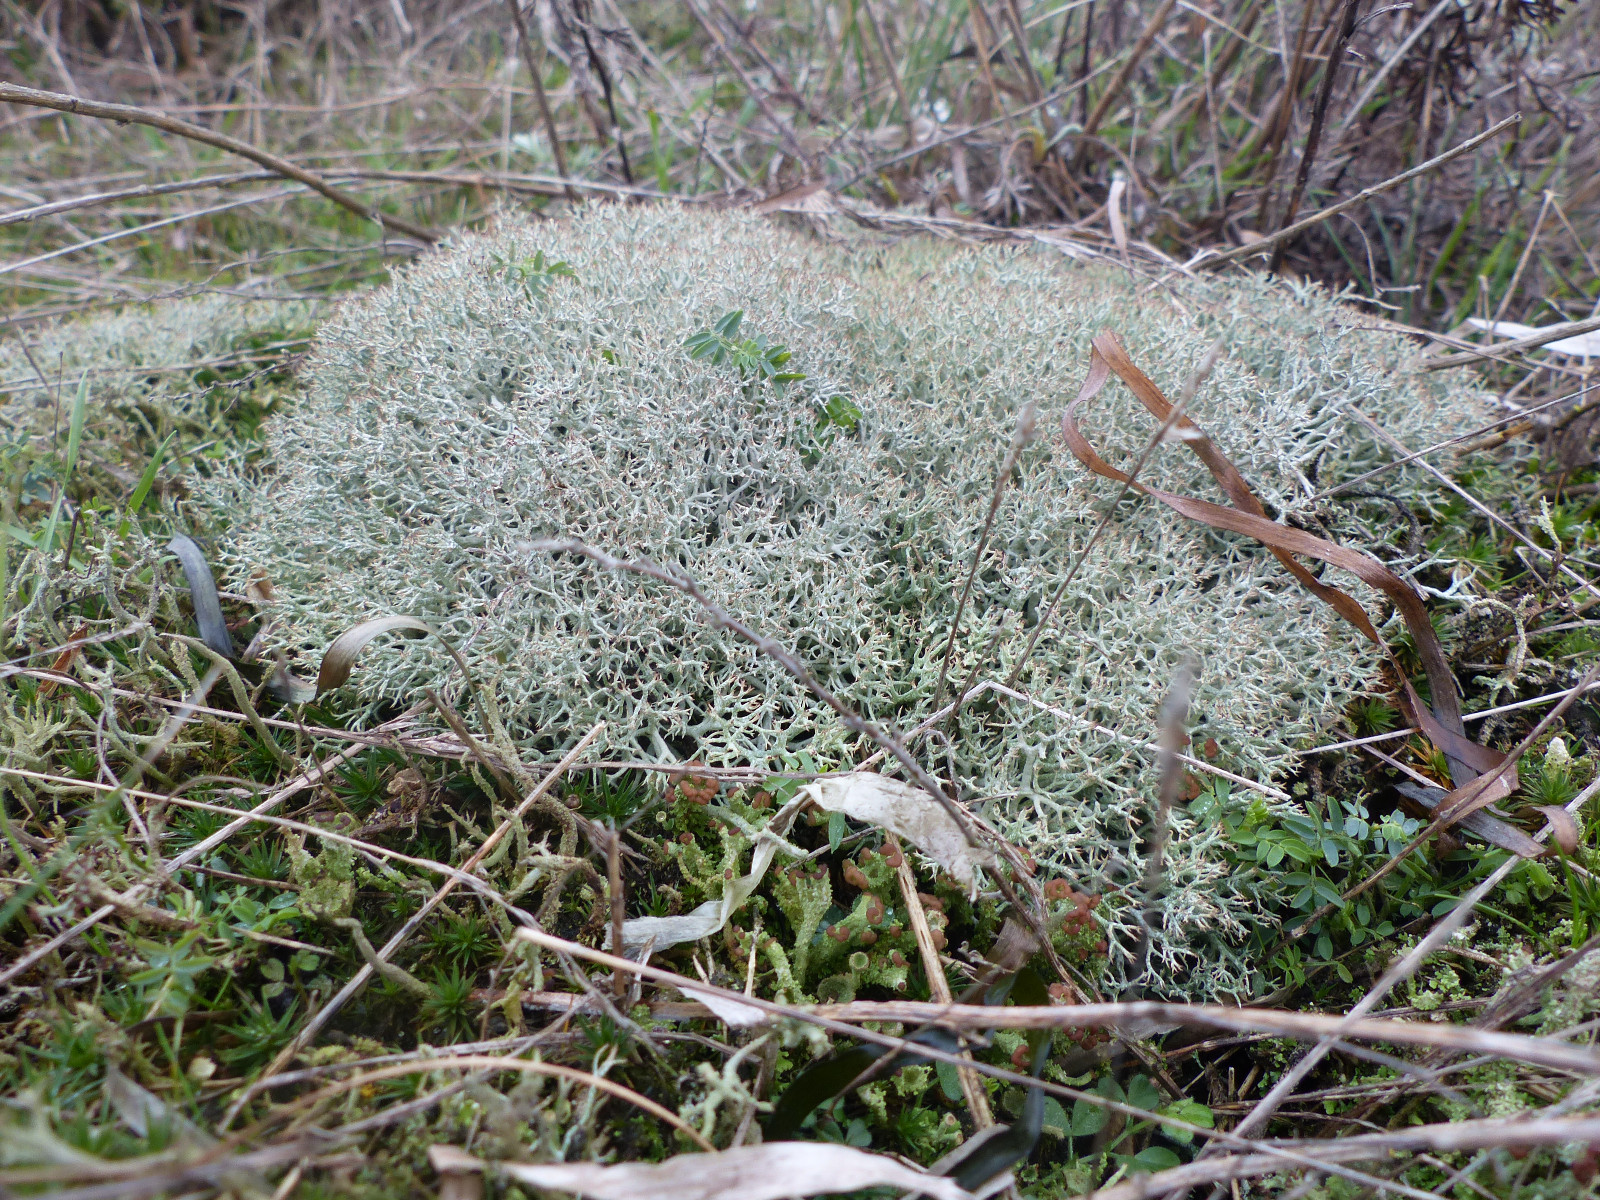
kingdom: Fungi
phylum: Ascomycota
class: Lecanoromycetes
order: Lecanorales
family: Cladoniaceae
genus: Cladonia
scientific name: Cladonia portentosa
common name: hede-rensdyrlav
